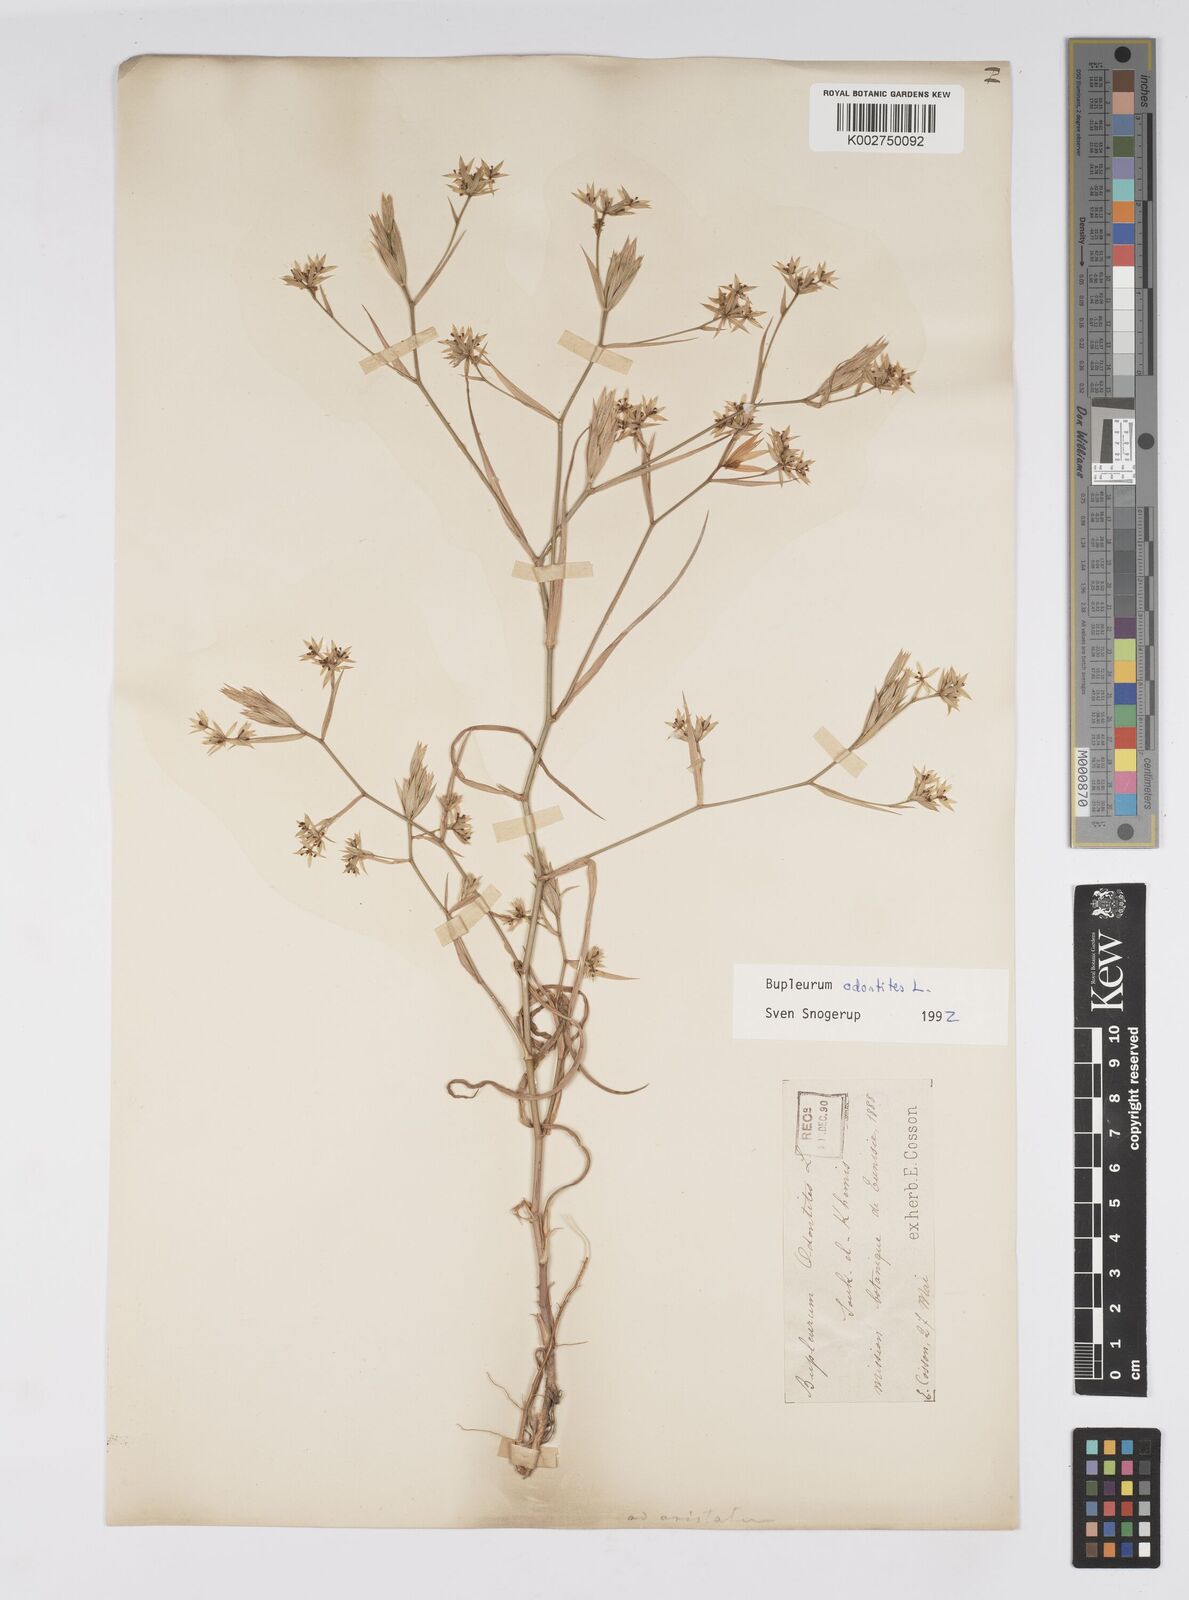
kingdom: Plantae
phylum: Tracheophyta
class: Magnoliopsida
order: Apiales
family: Apiaceae
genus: Bupleurum
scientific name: Bupleurum odontites
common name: Narrowleaf thorow wax
